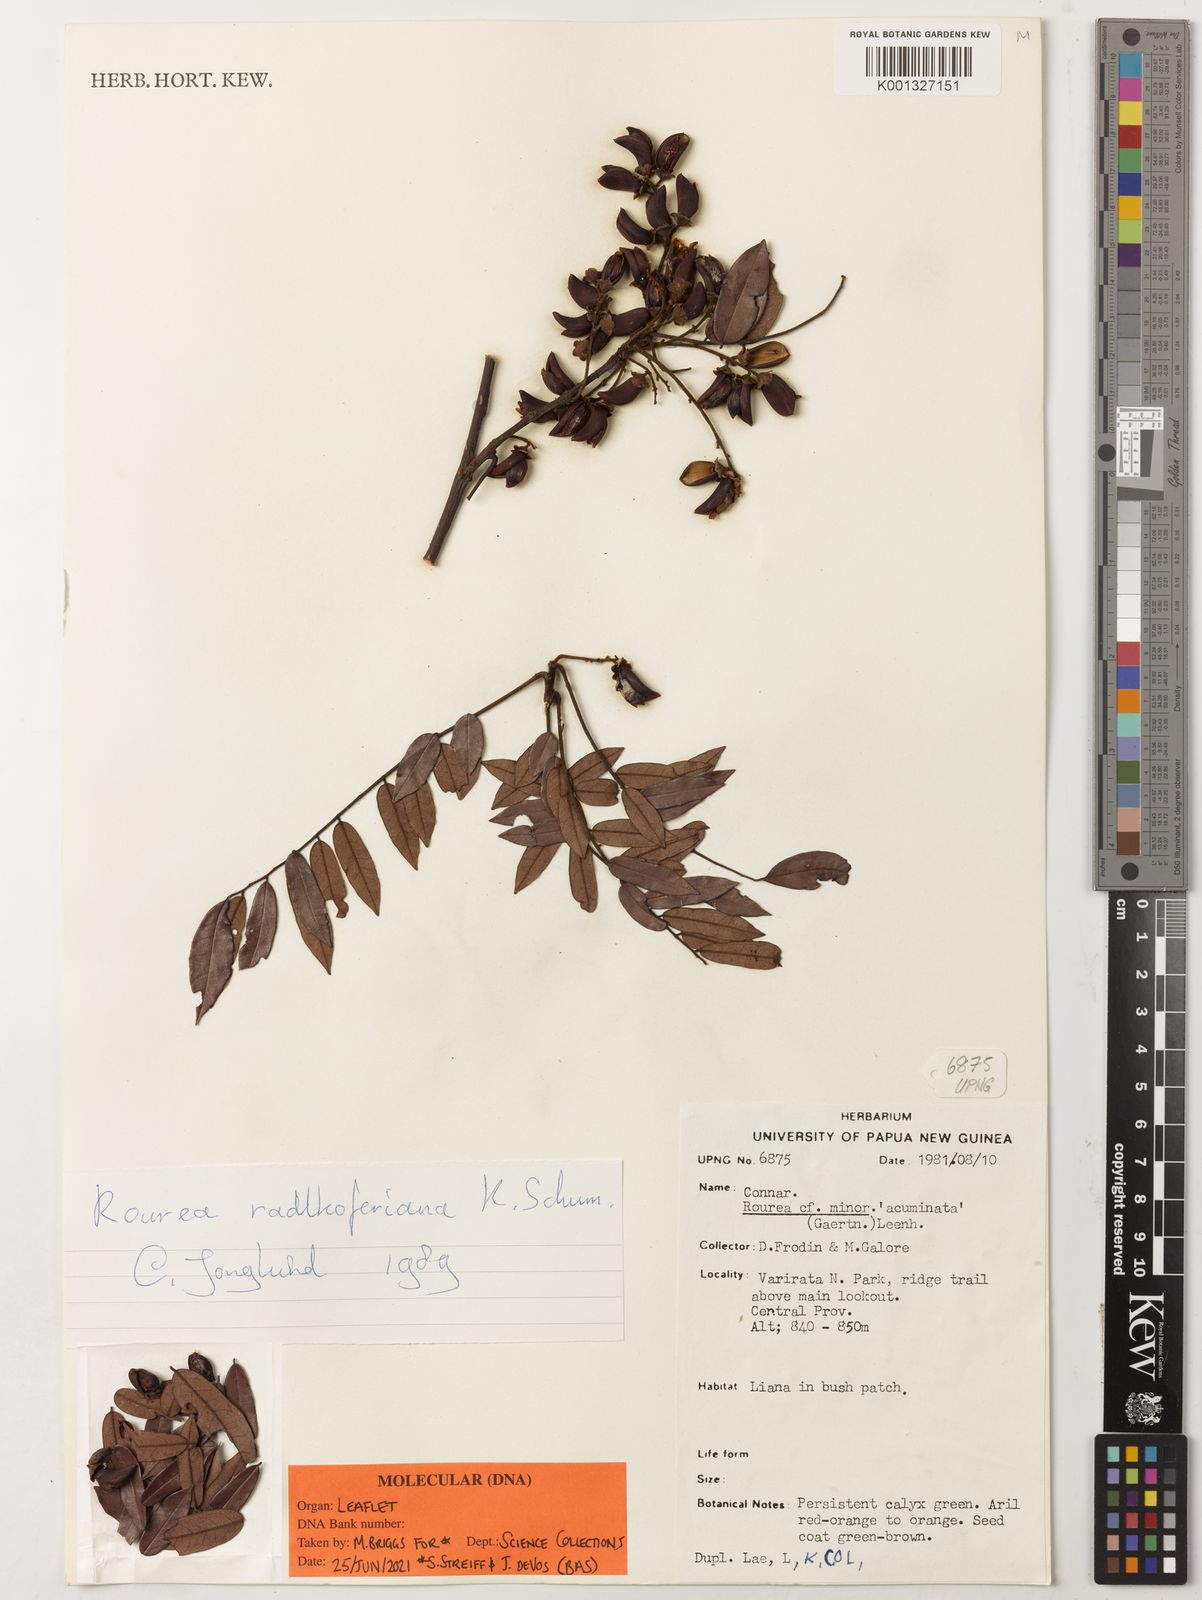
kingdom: Plantae
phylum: Tracheophyta
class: Magnoliopsida
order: Oxalidales
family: Connaraceae
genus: Rourea
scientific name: Rourea radlkoferiana
